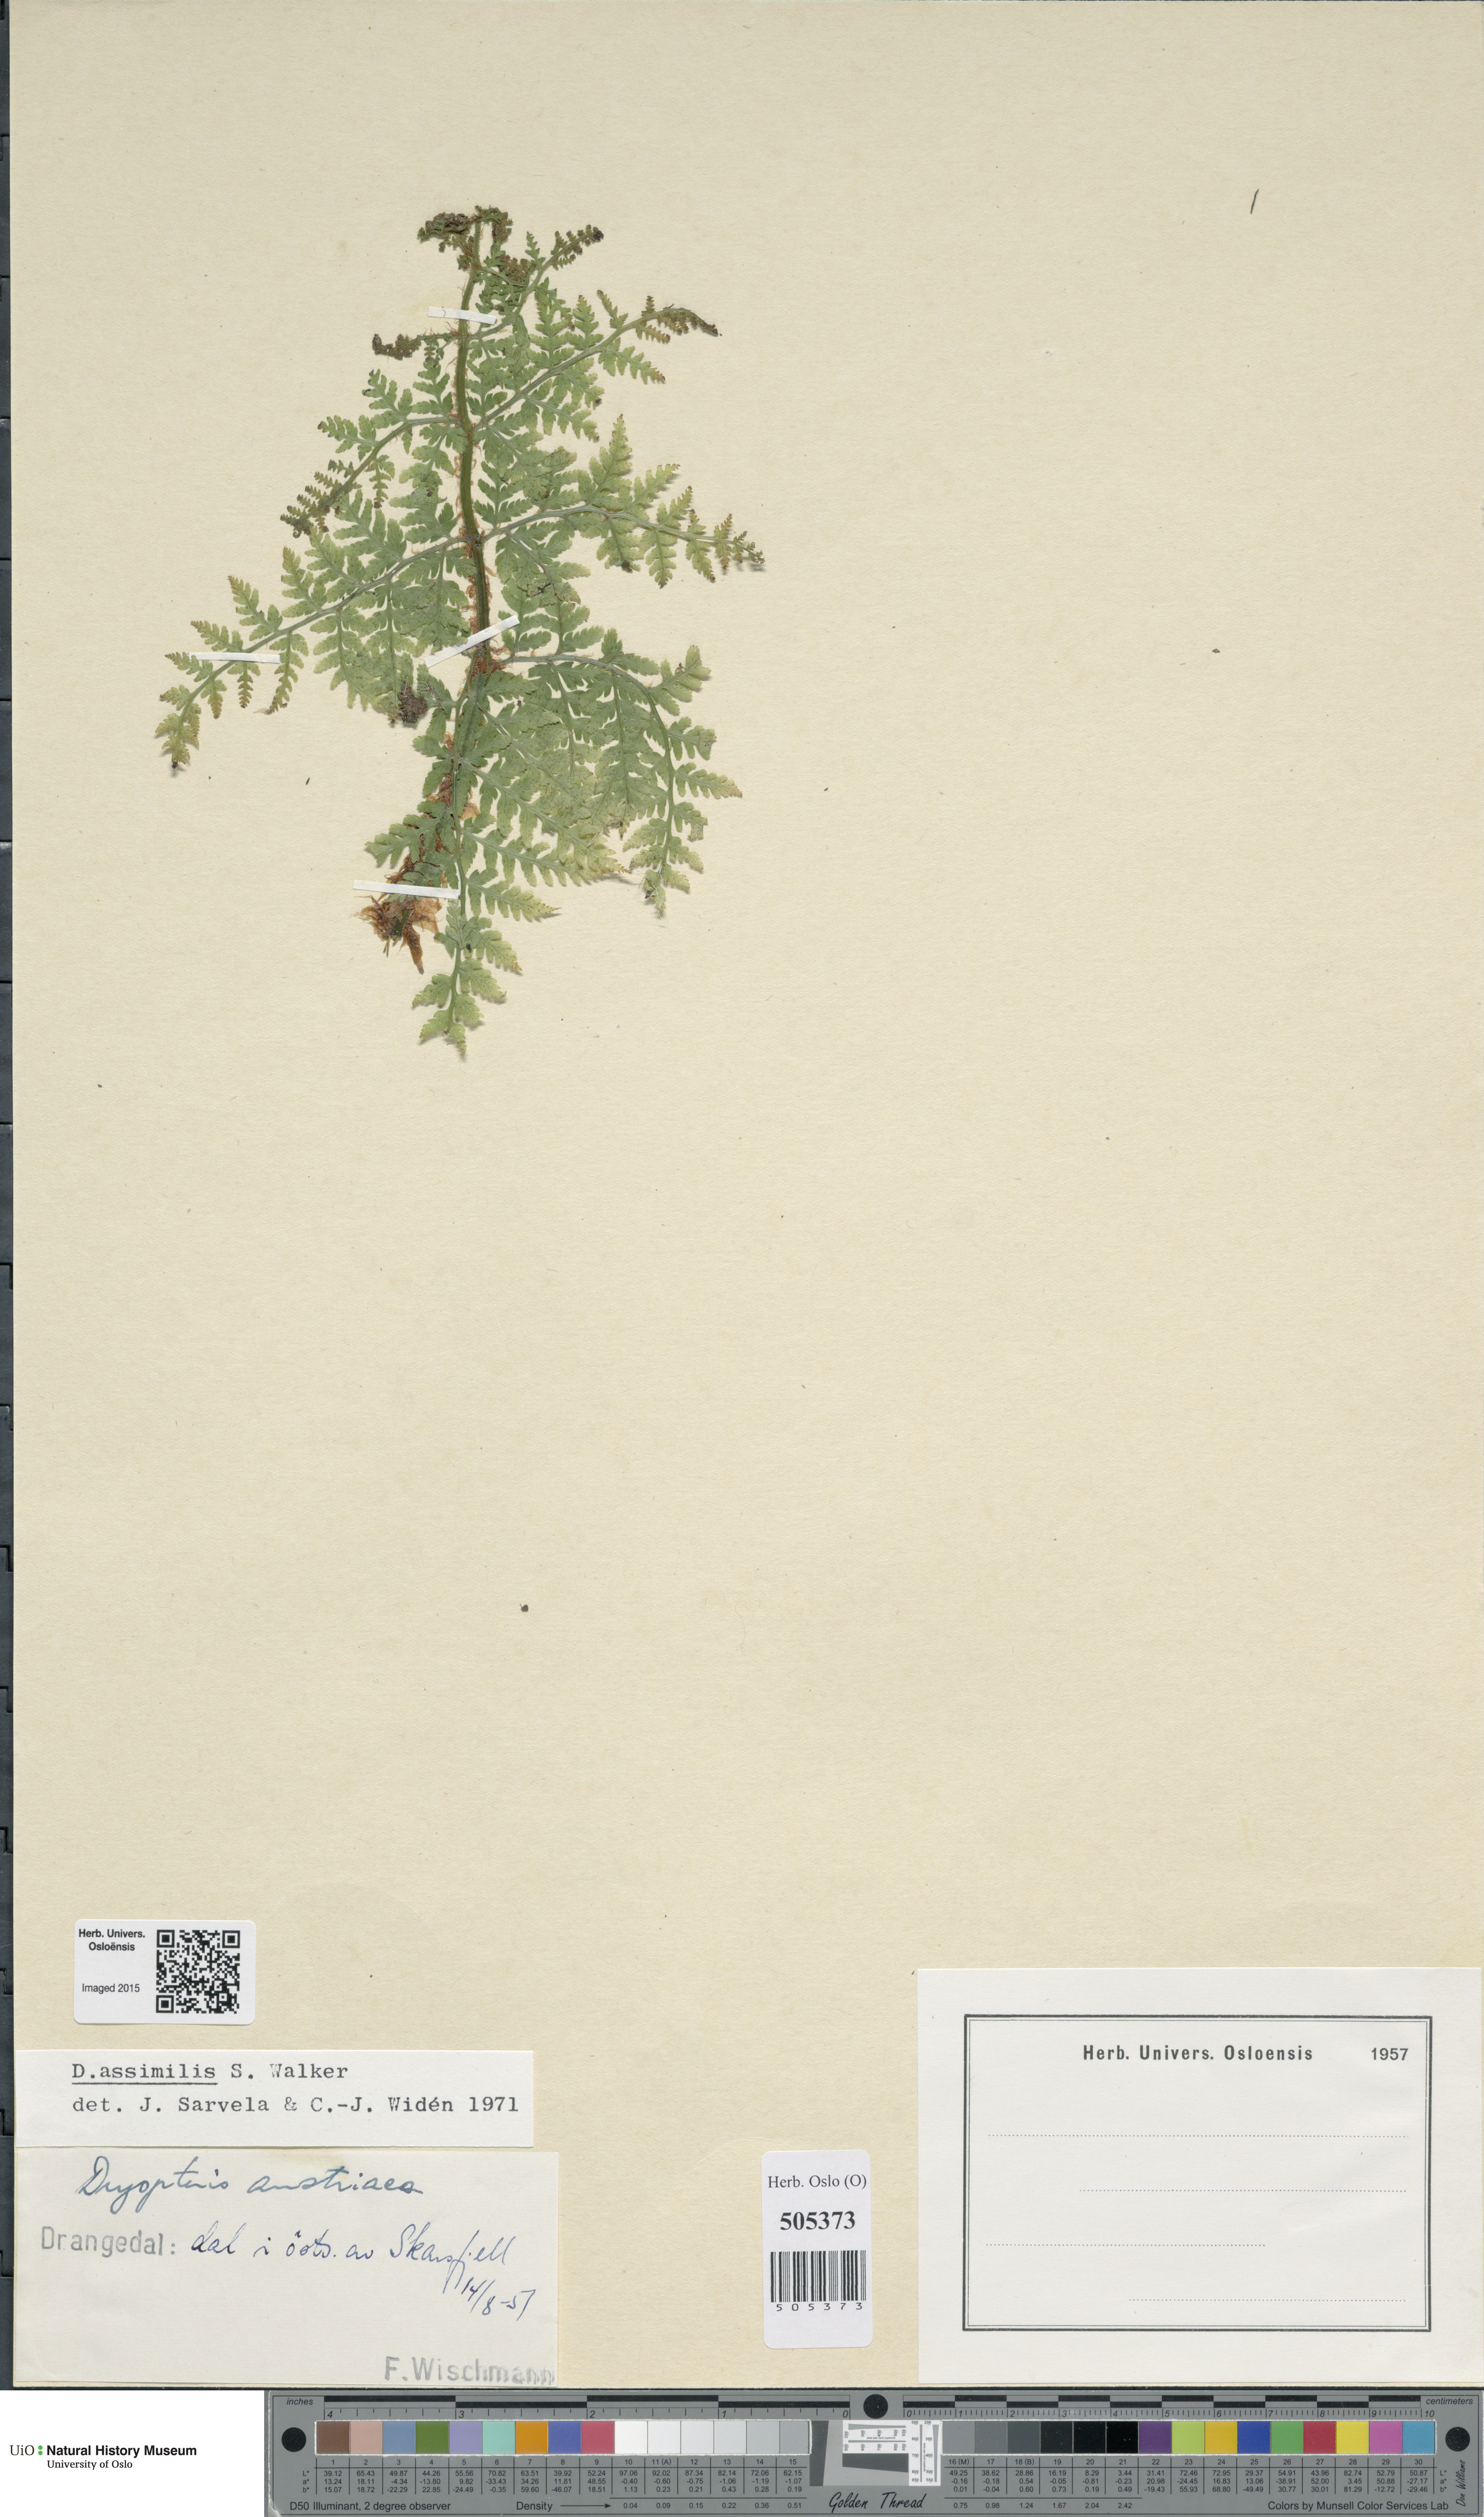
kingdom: Plantae
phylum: Tracheophyta
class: Polypodiopsida
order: Polypodiales
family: Dryopteridaceae
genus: Dryopteris
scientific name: Dryopteris expansa
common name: Northern buckler fern
